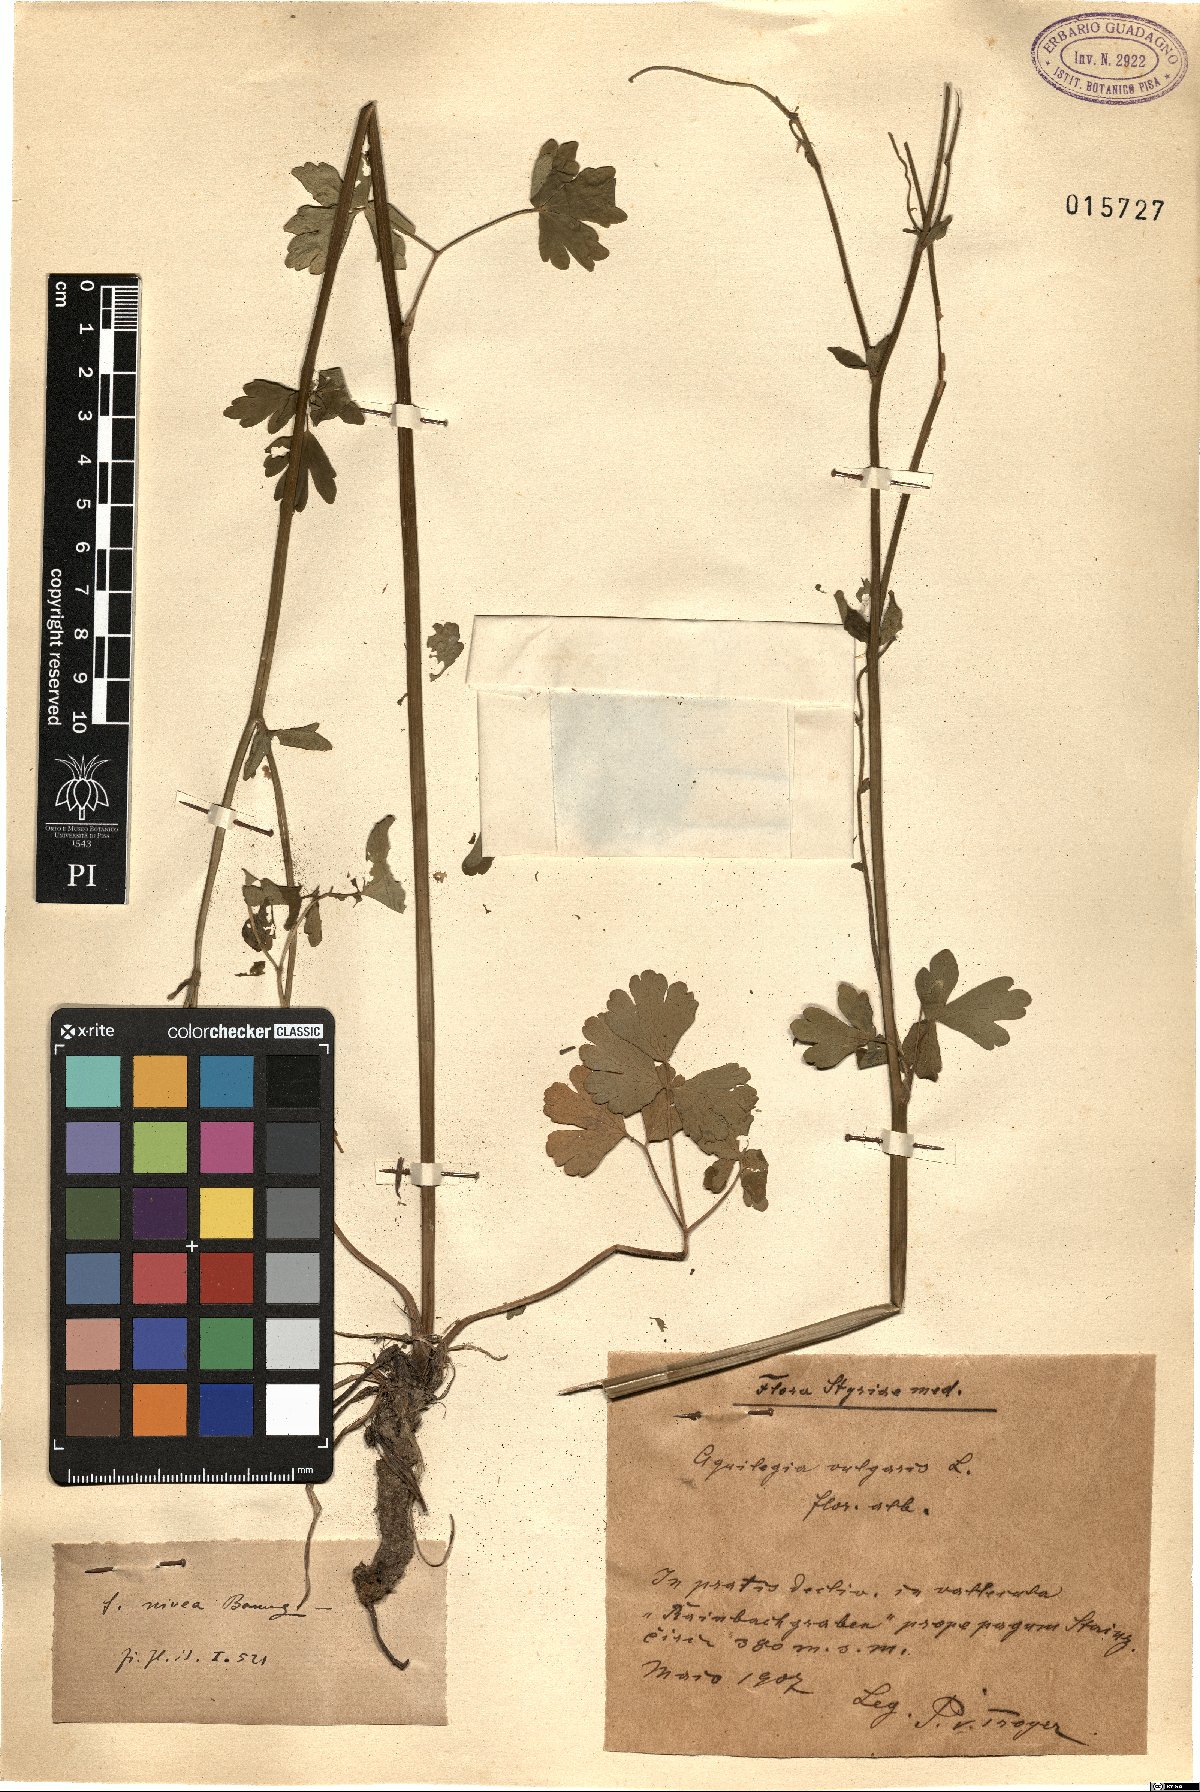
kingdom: Plantae
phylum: Tracheophyta
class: Magnoliopsida
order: Ranunculales
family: Ranunculaceae
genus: Aquilegia
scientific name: Aquilegia vulgaris
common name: Columbine
